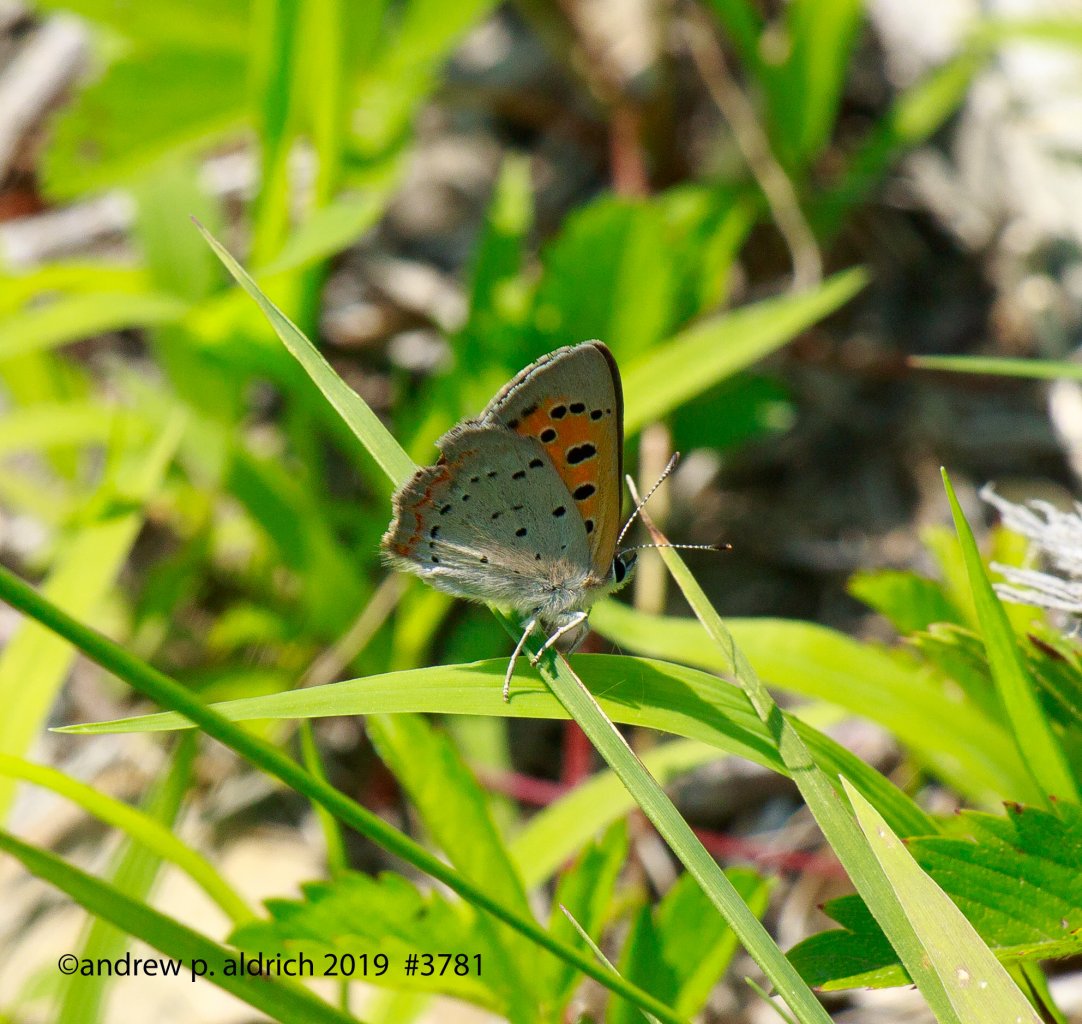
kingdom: Animalia
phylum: Arthropoda
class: Insecta
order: Lepidoptera
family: Lycaenidae
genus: Lycaena
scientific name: Lycaena phlaeas
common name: American Copper
